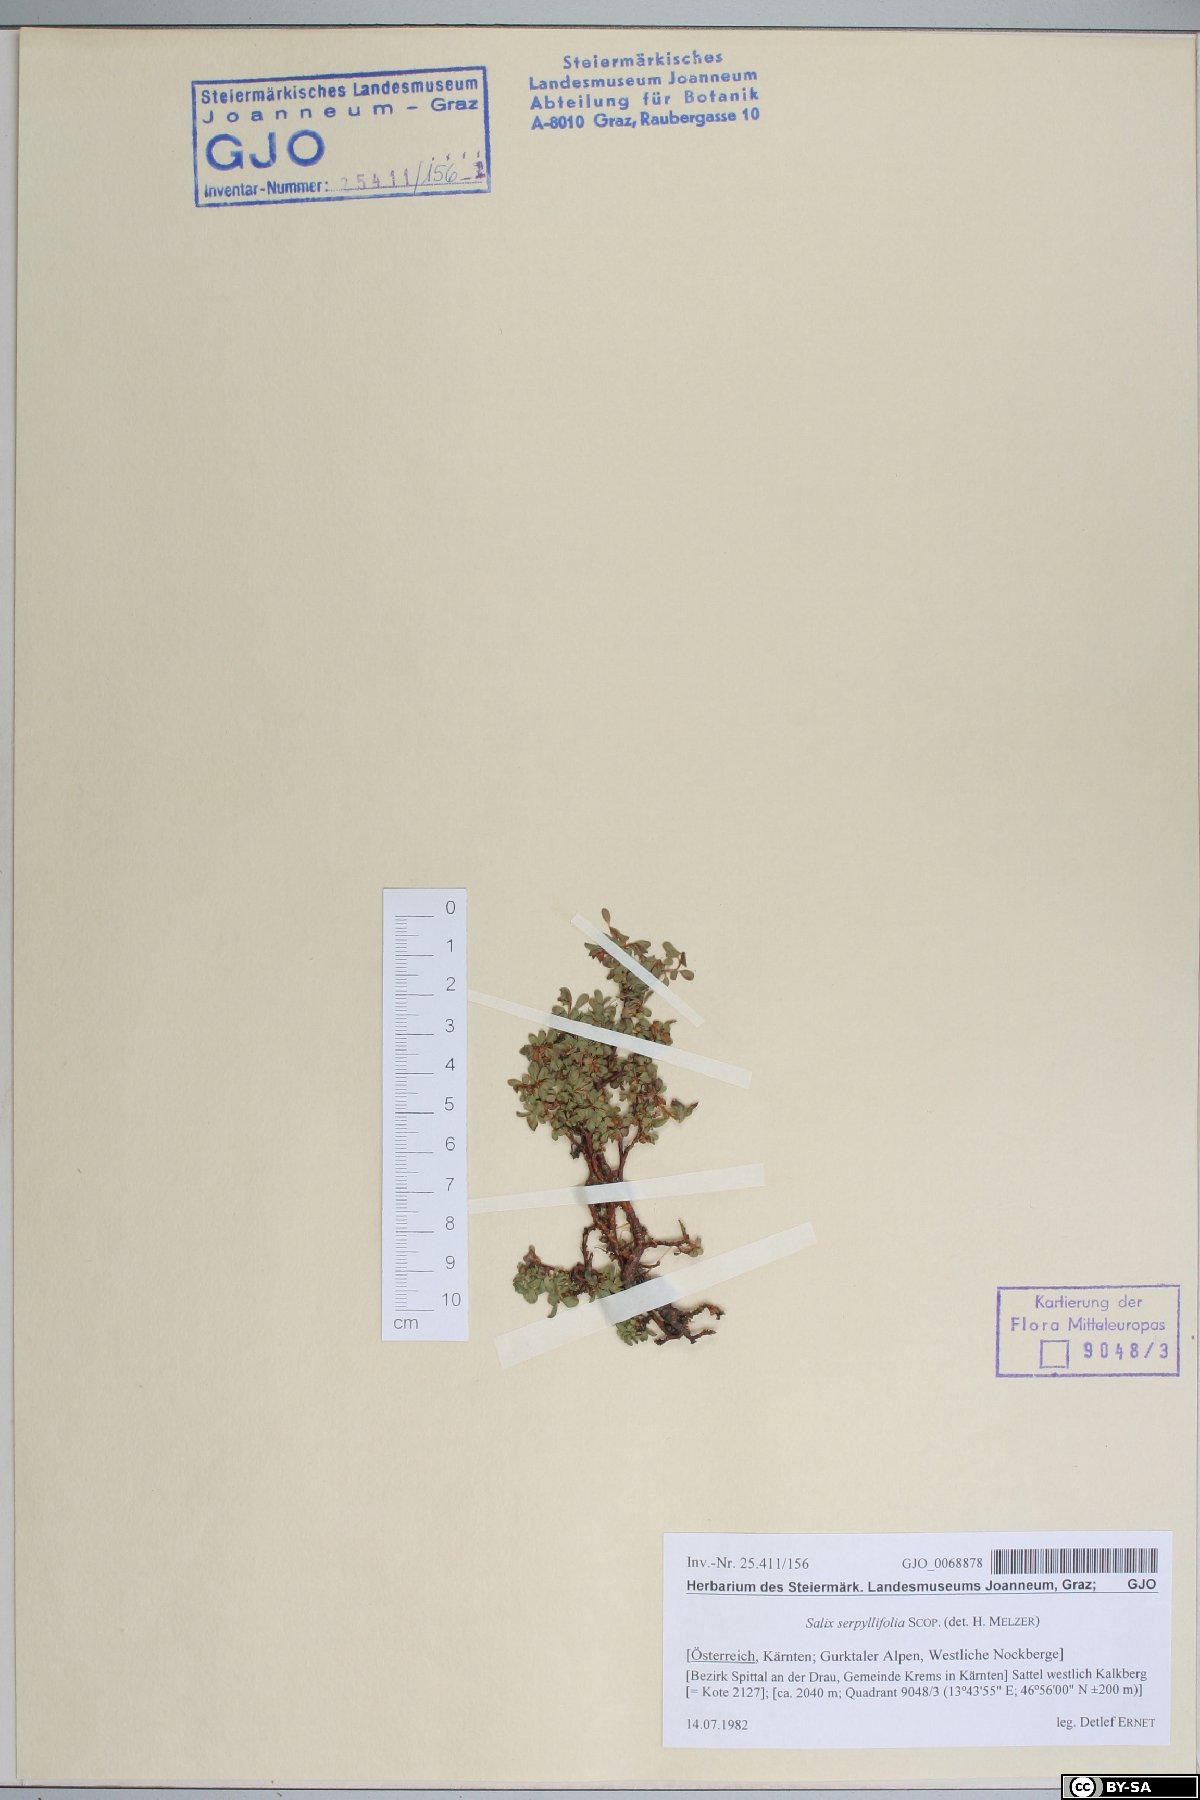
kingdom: Plantae
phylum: Tracheophyta
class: Magnoliopsida
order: Malpighiales
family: Salicaceae
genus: Salix
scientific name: Salix serpillifolia
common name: Thyme-leaf willow
